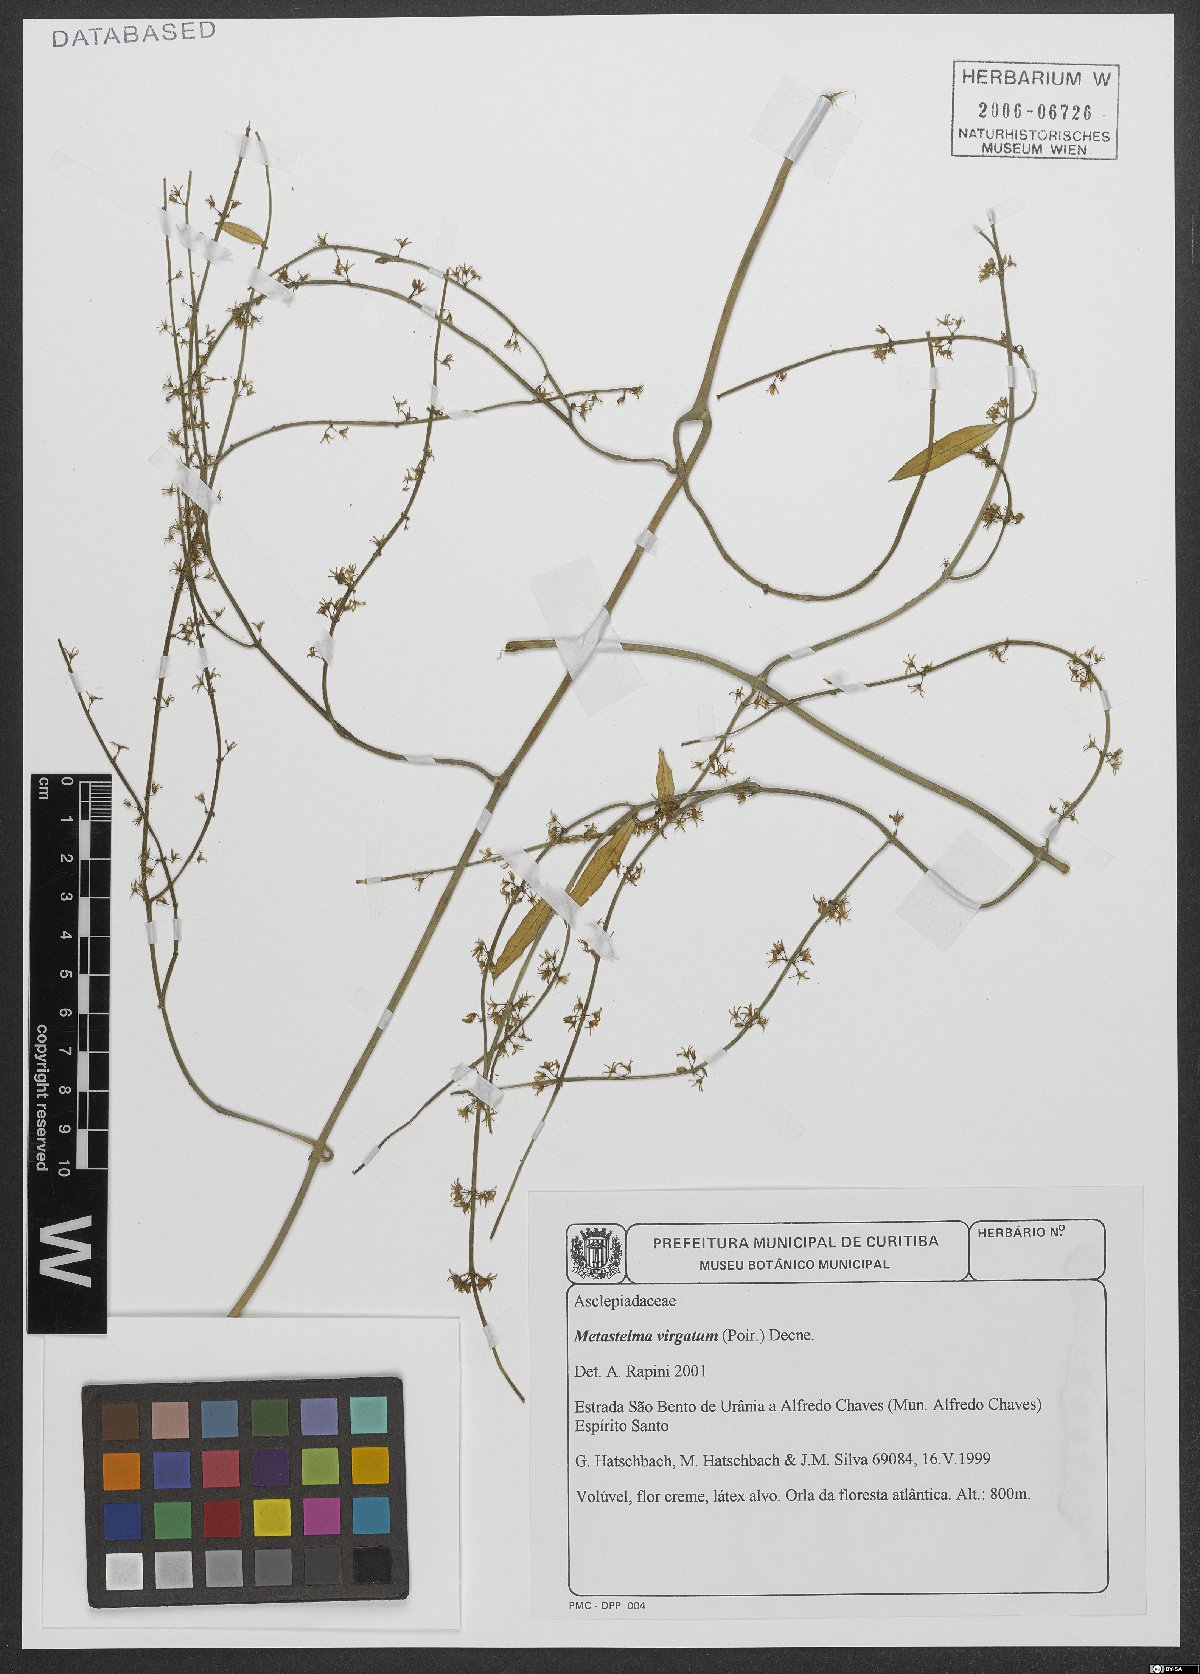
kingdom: Plantae
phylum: Tracheophyta
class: Magnoliopsida
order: Gentianales
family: Apocynaceae
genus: Orthosia
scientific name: Orthosia virgata
